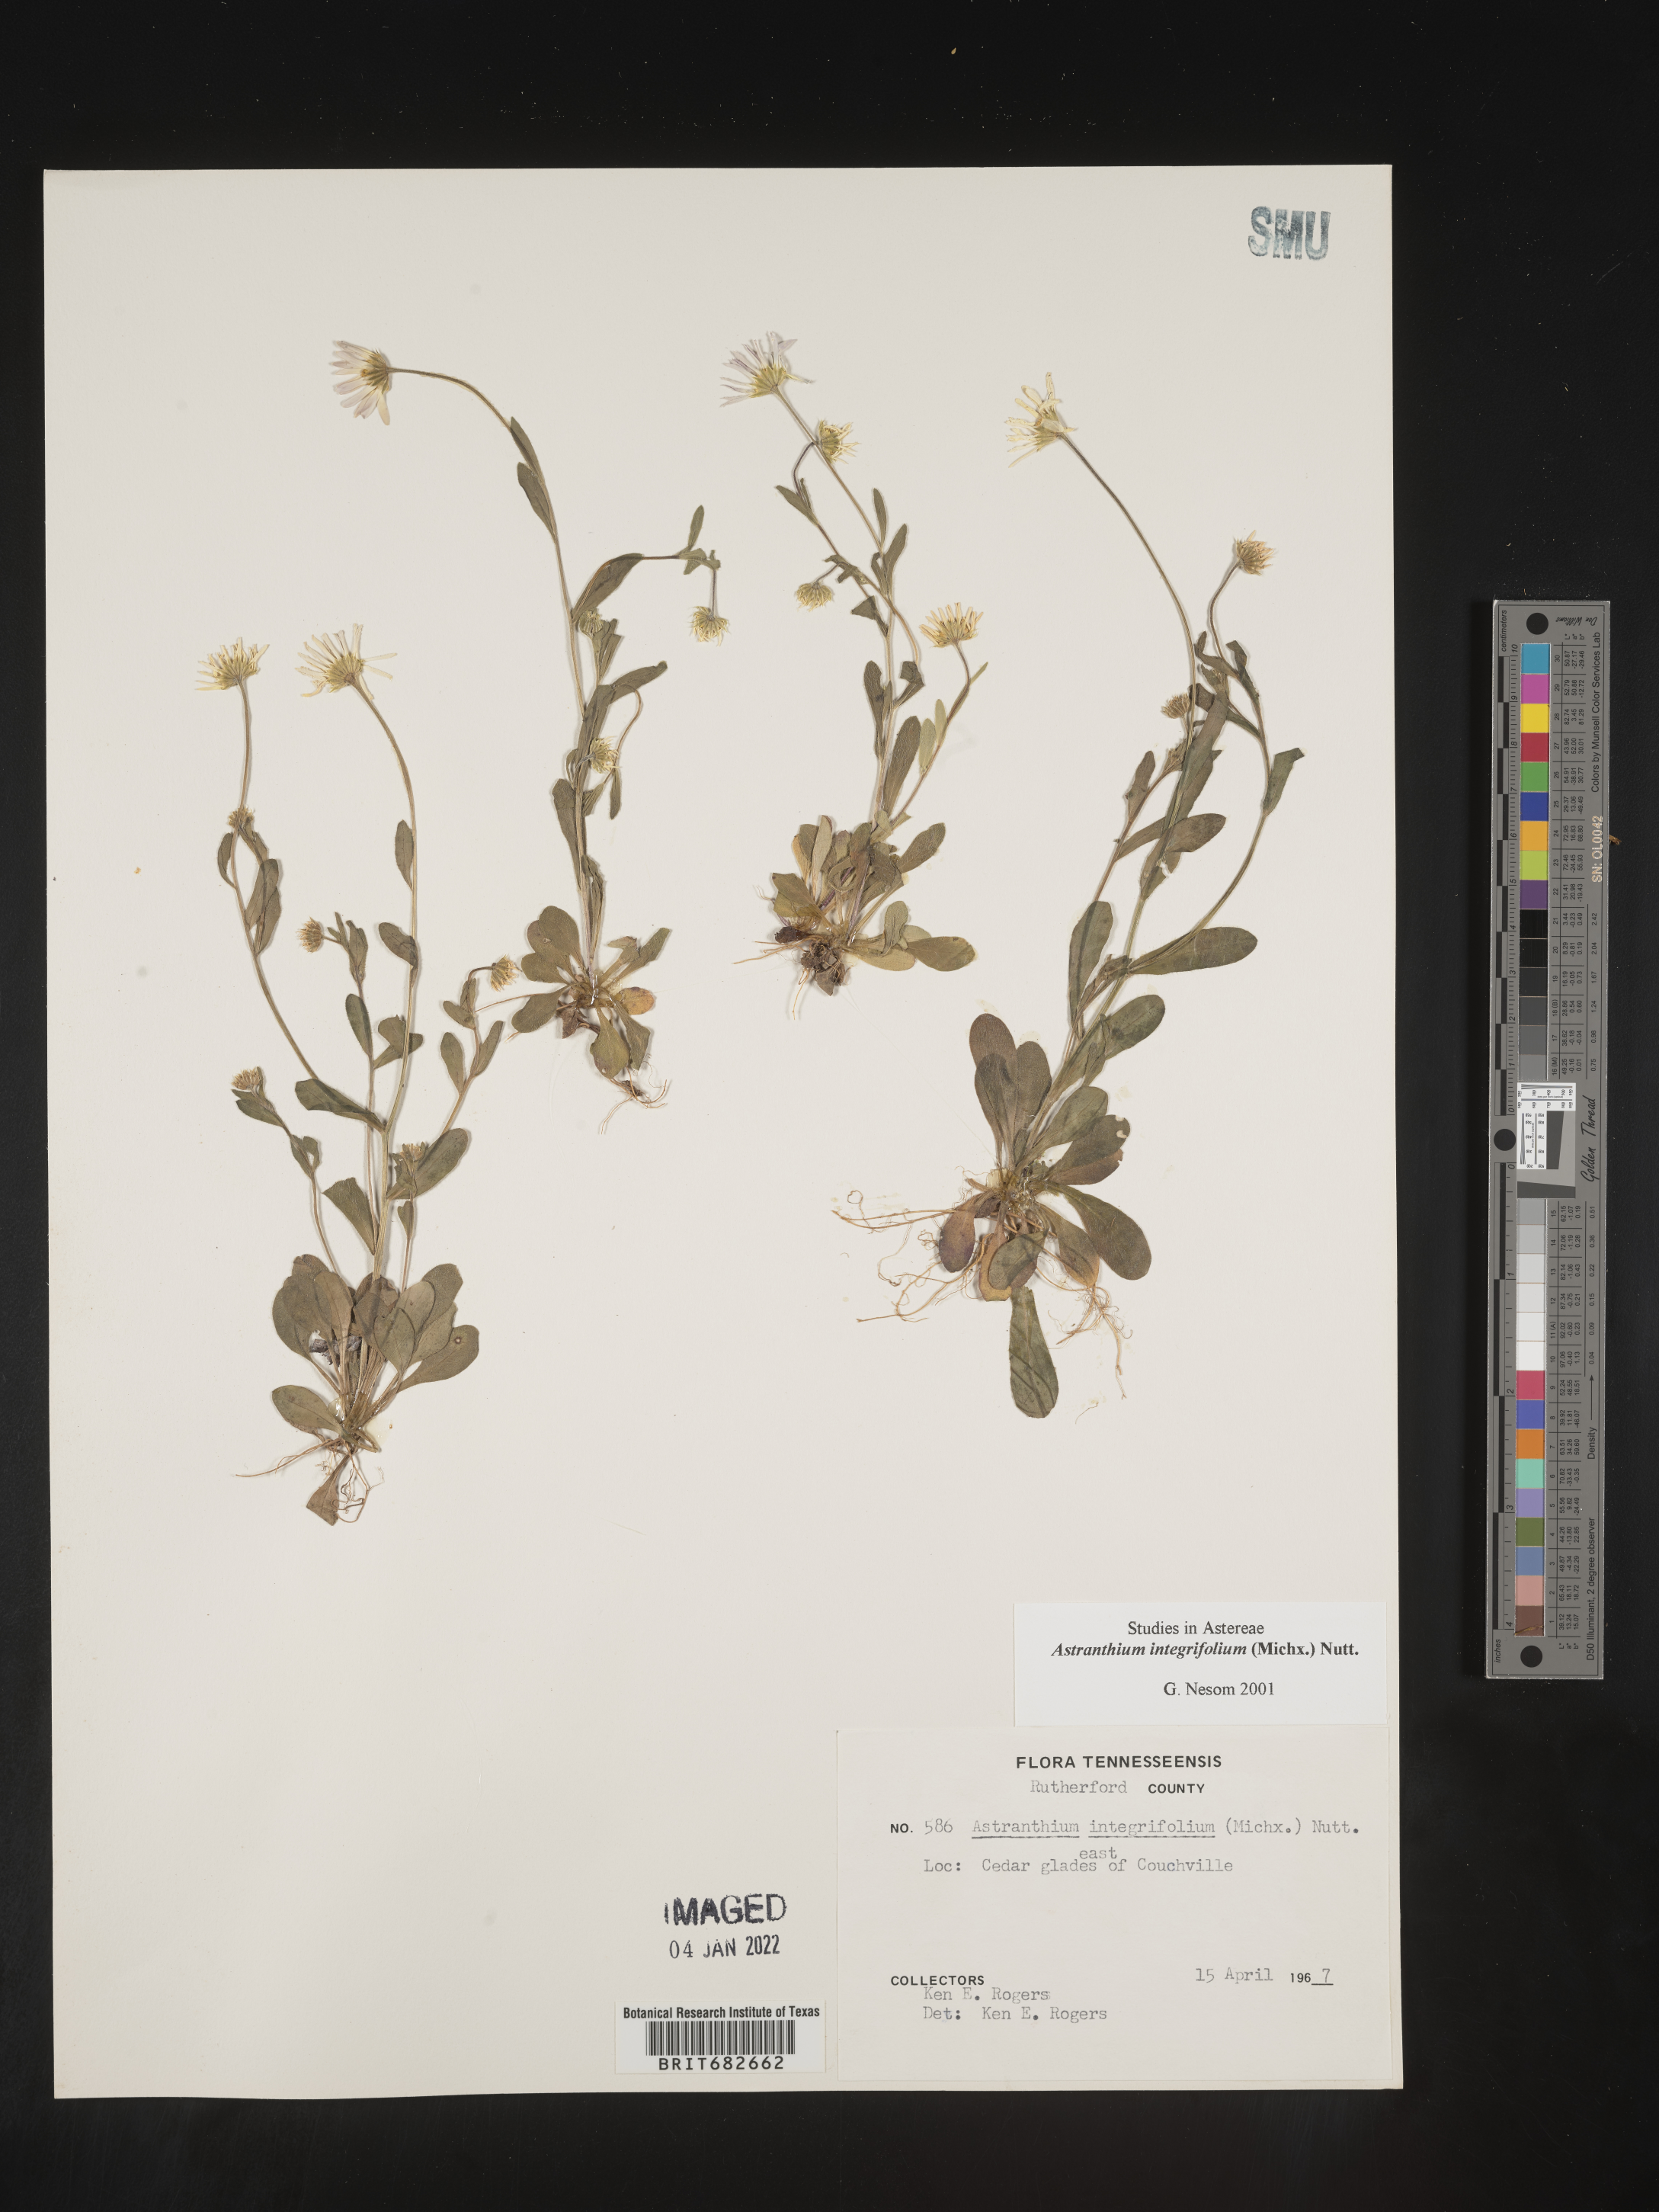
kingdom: Plantae
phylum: Tracheophyta
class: Magnoliopsida
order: Asterales
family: Asteraceae
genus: Astranthium
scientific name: Astranthium
